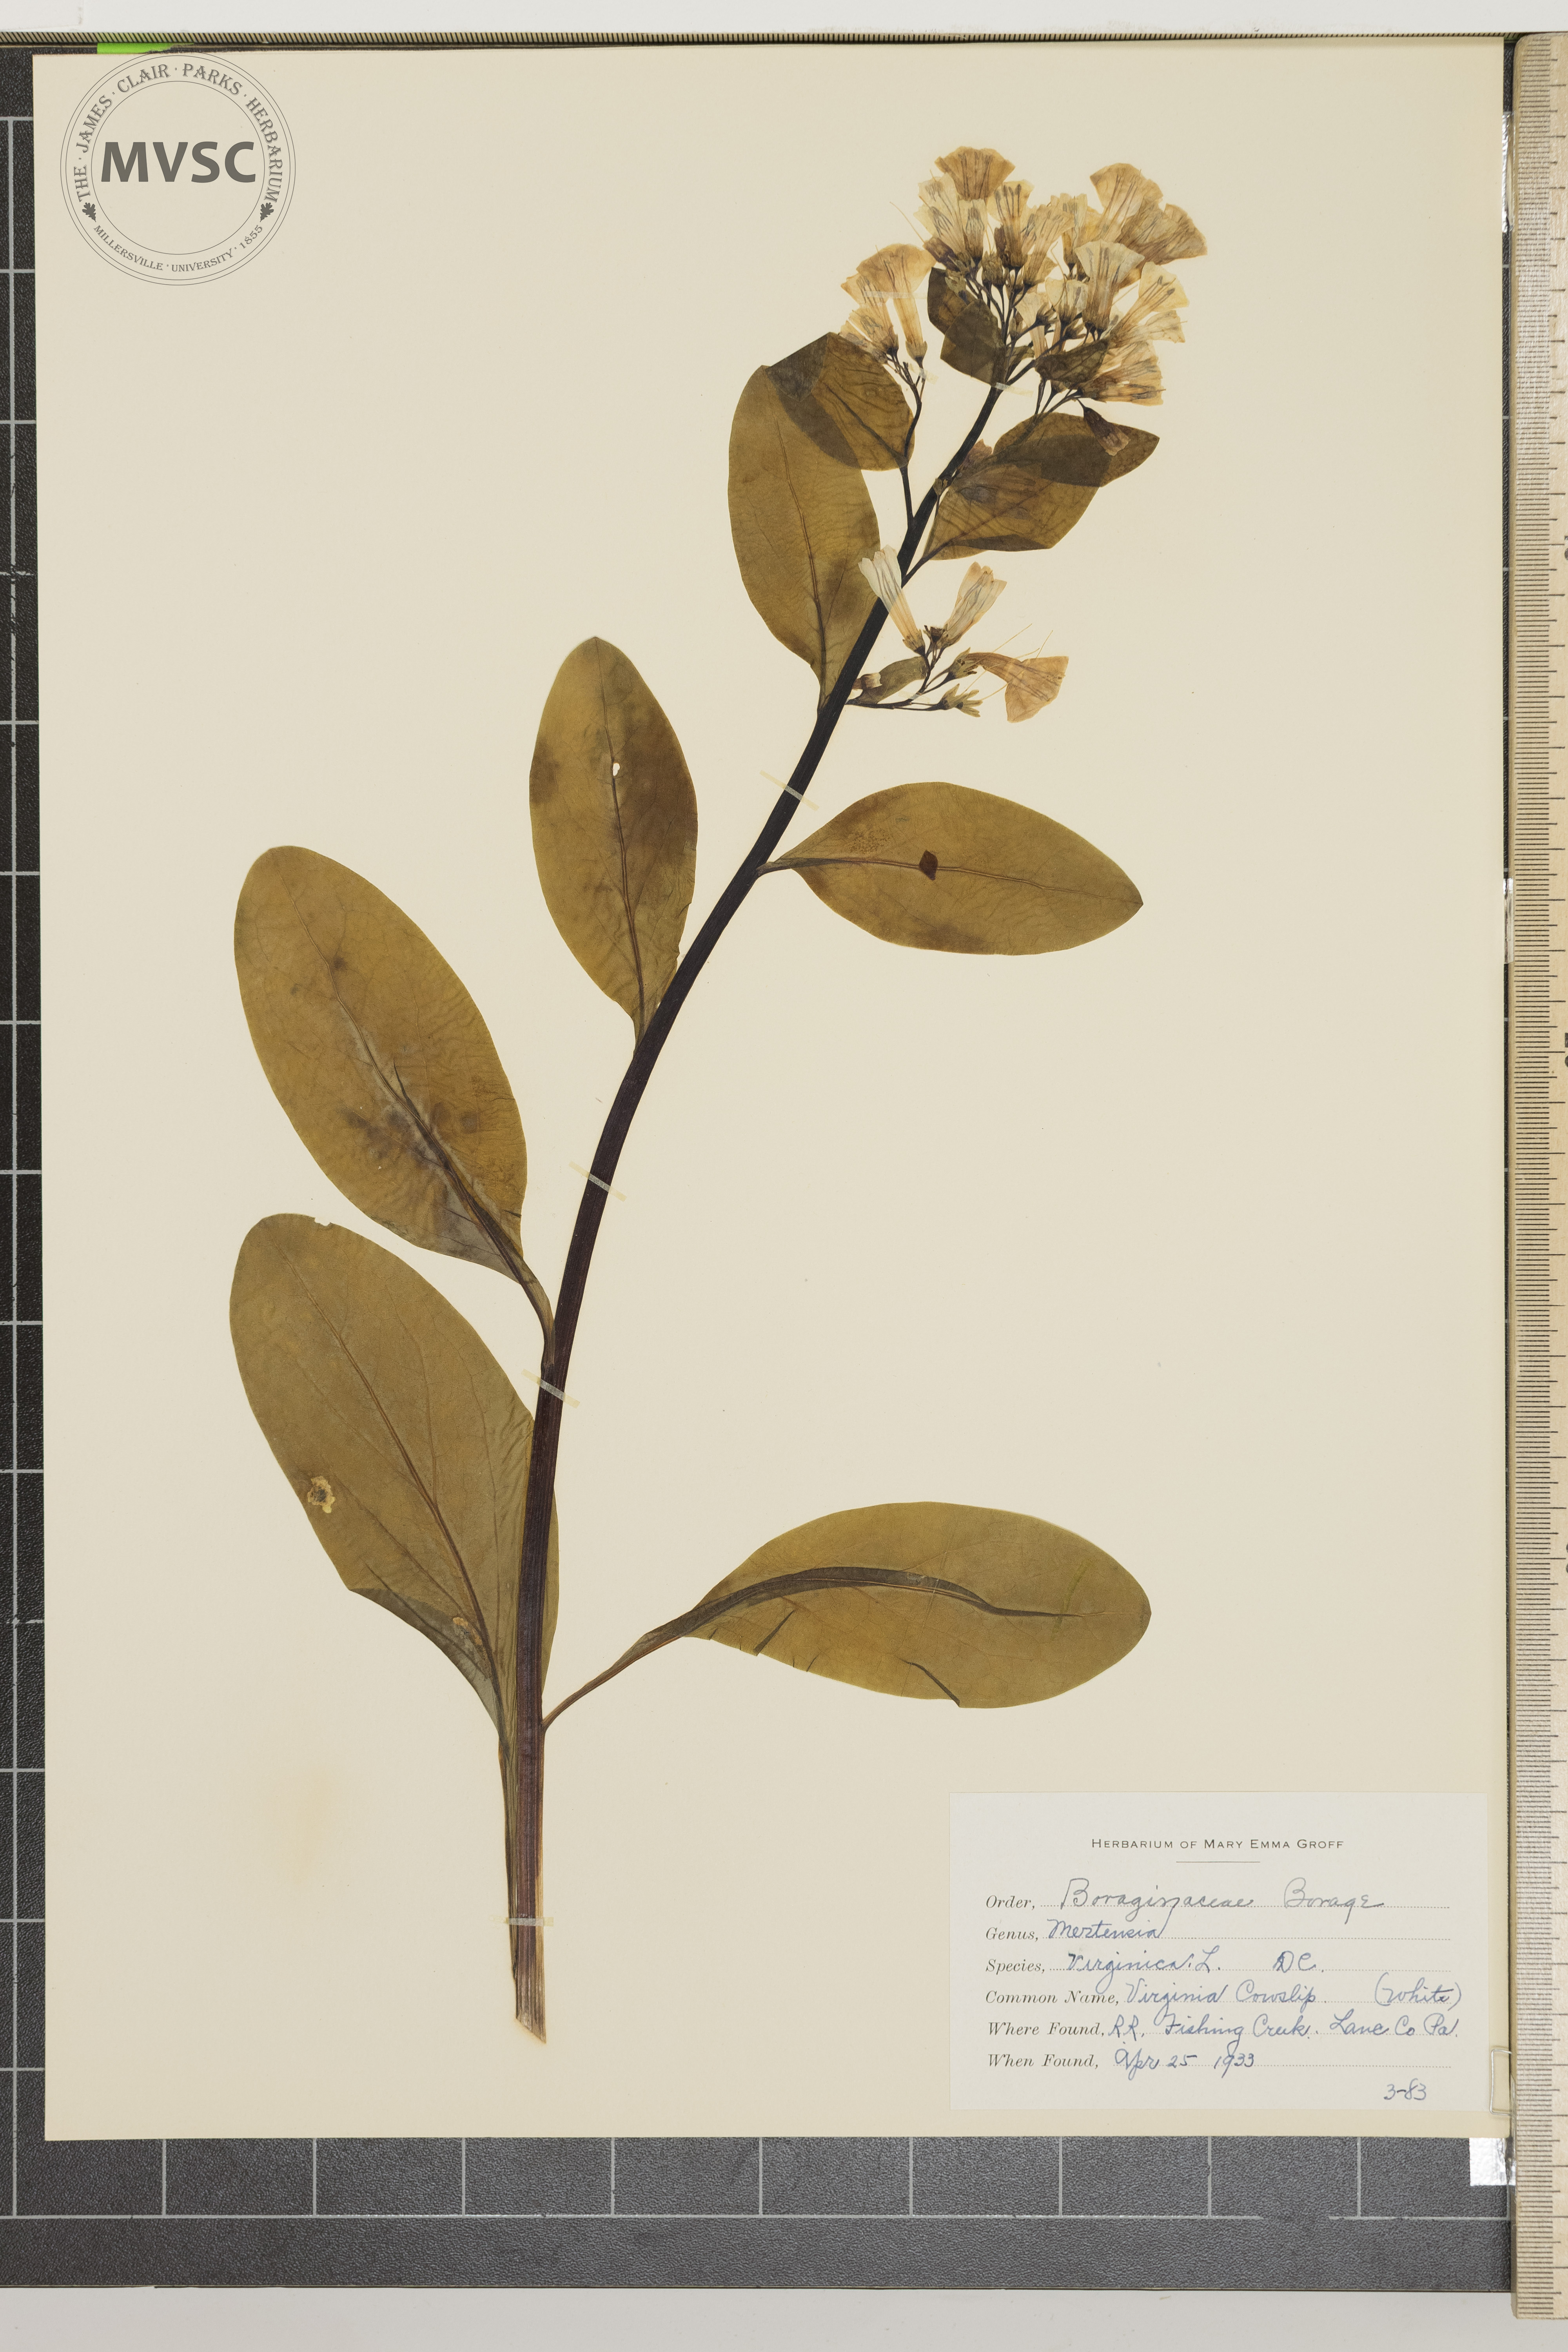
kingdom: Plantae
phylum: Tracheophyta
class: Magnoliopsida
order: Boraginales
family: Boraginaceae
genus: Mertensia
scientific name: Mertensia virginica
